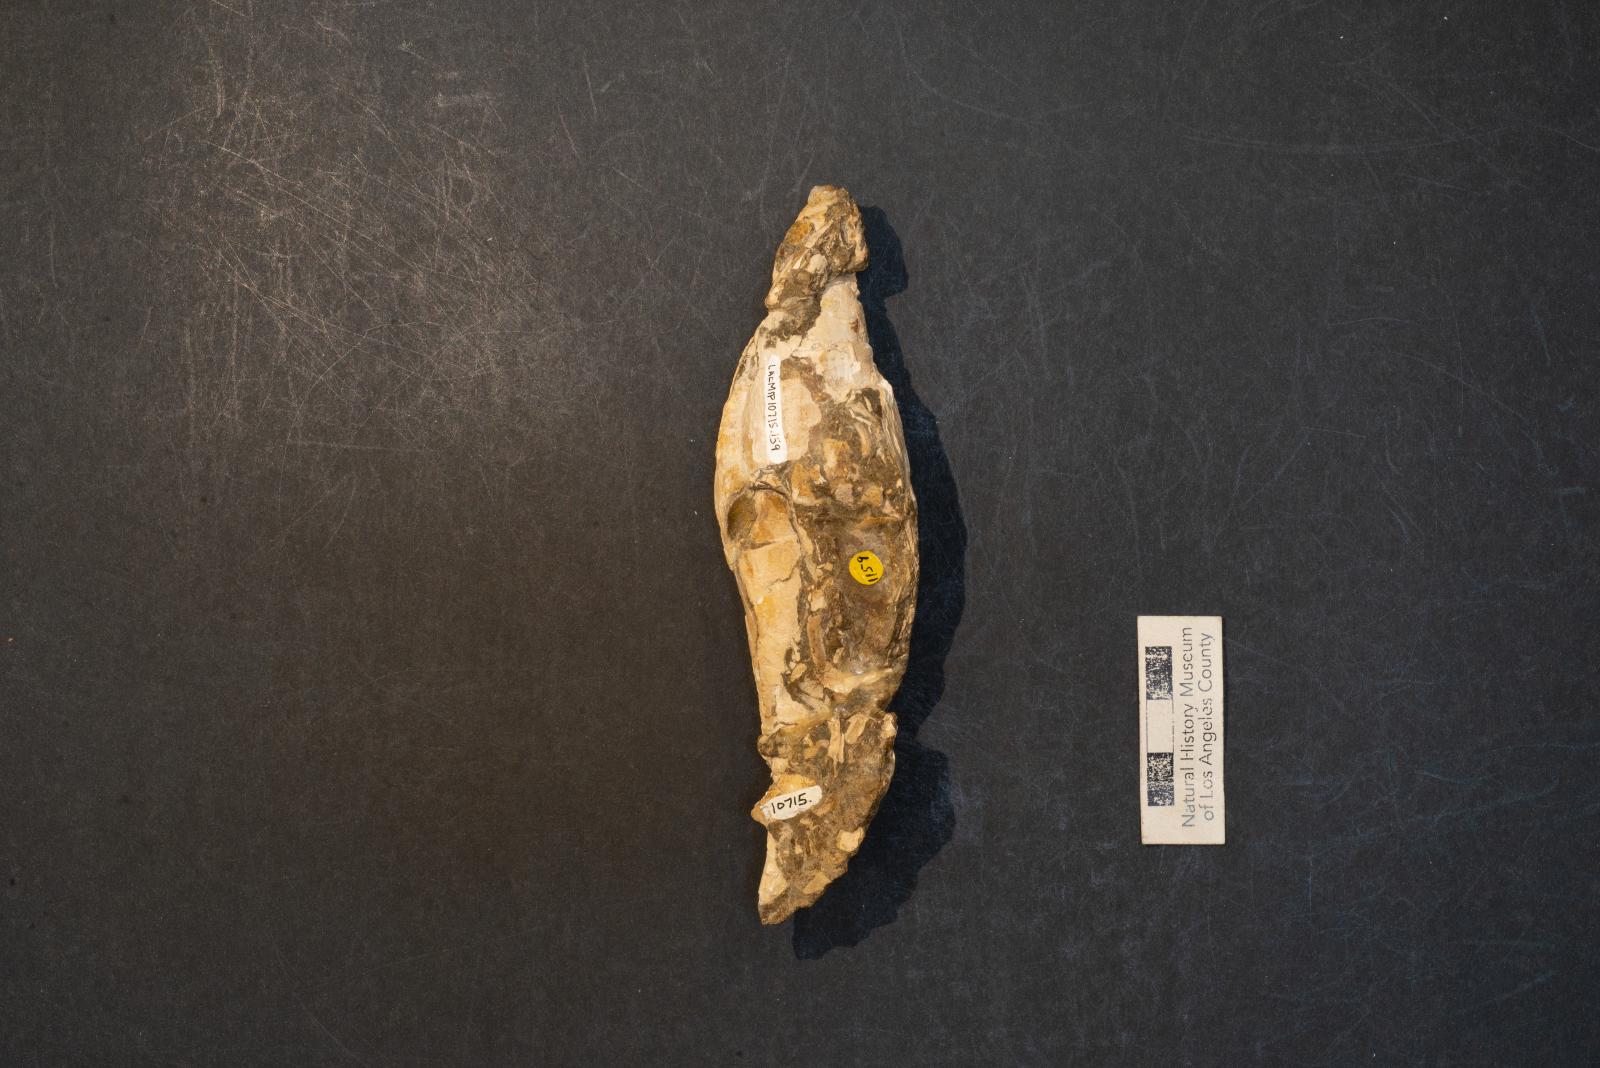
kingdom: Animalia
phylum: Mollusca
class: Gastropoda
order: Neogastropoda
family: Pholidotomidae
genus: Volutoderma
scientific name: Volutoderma
